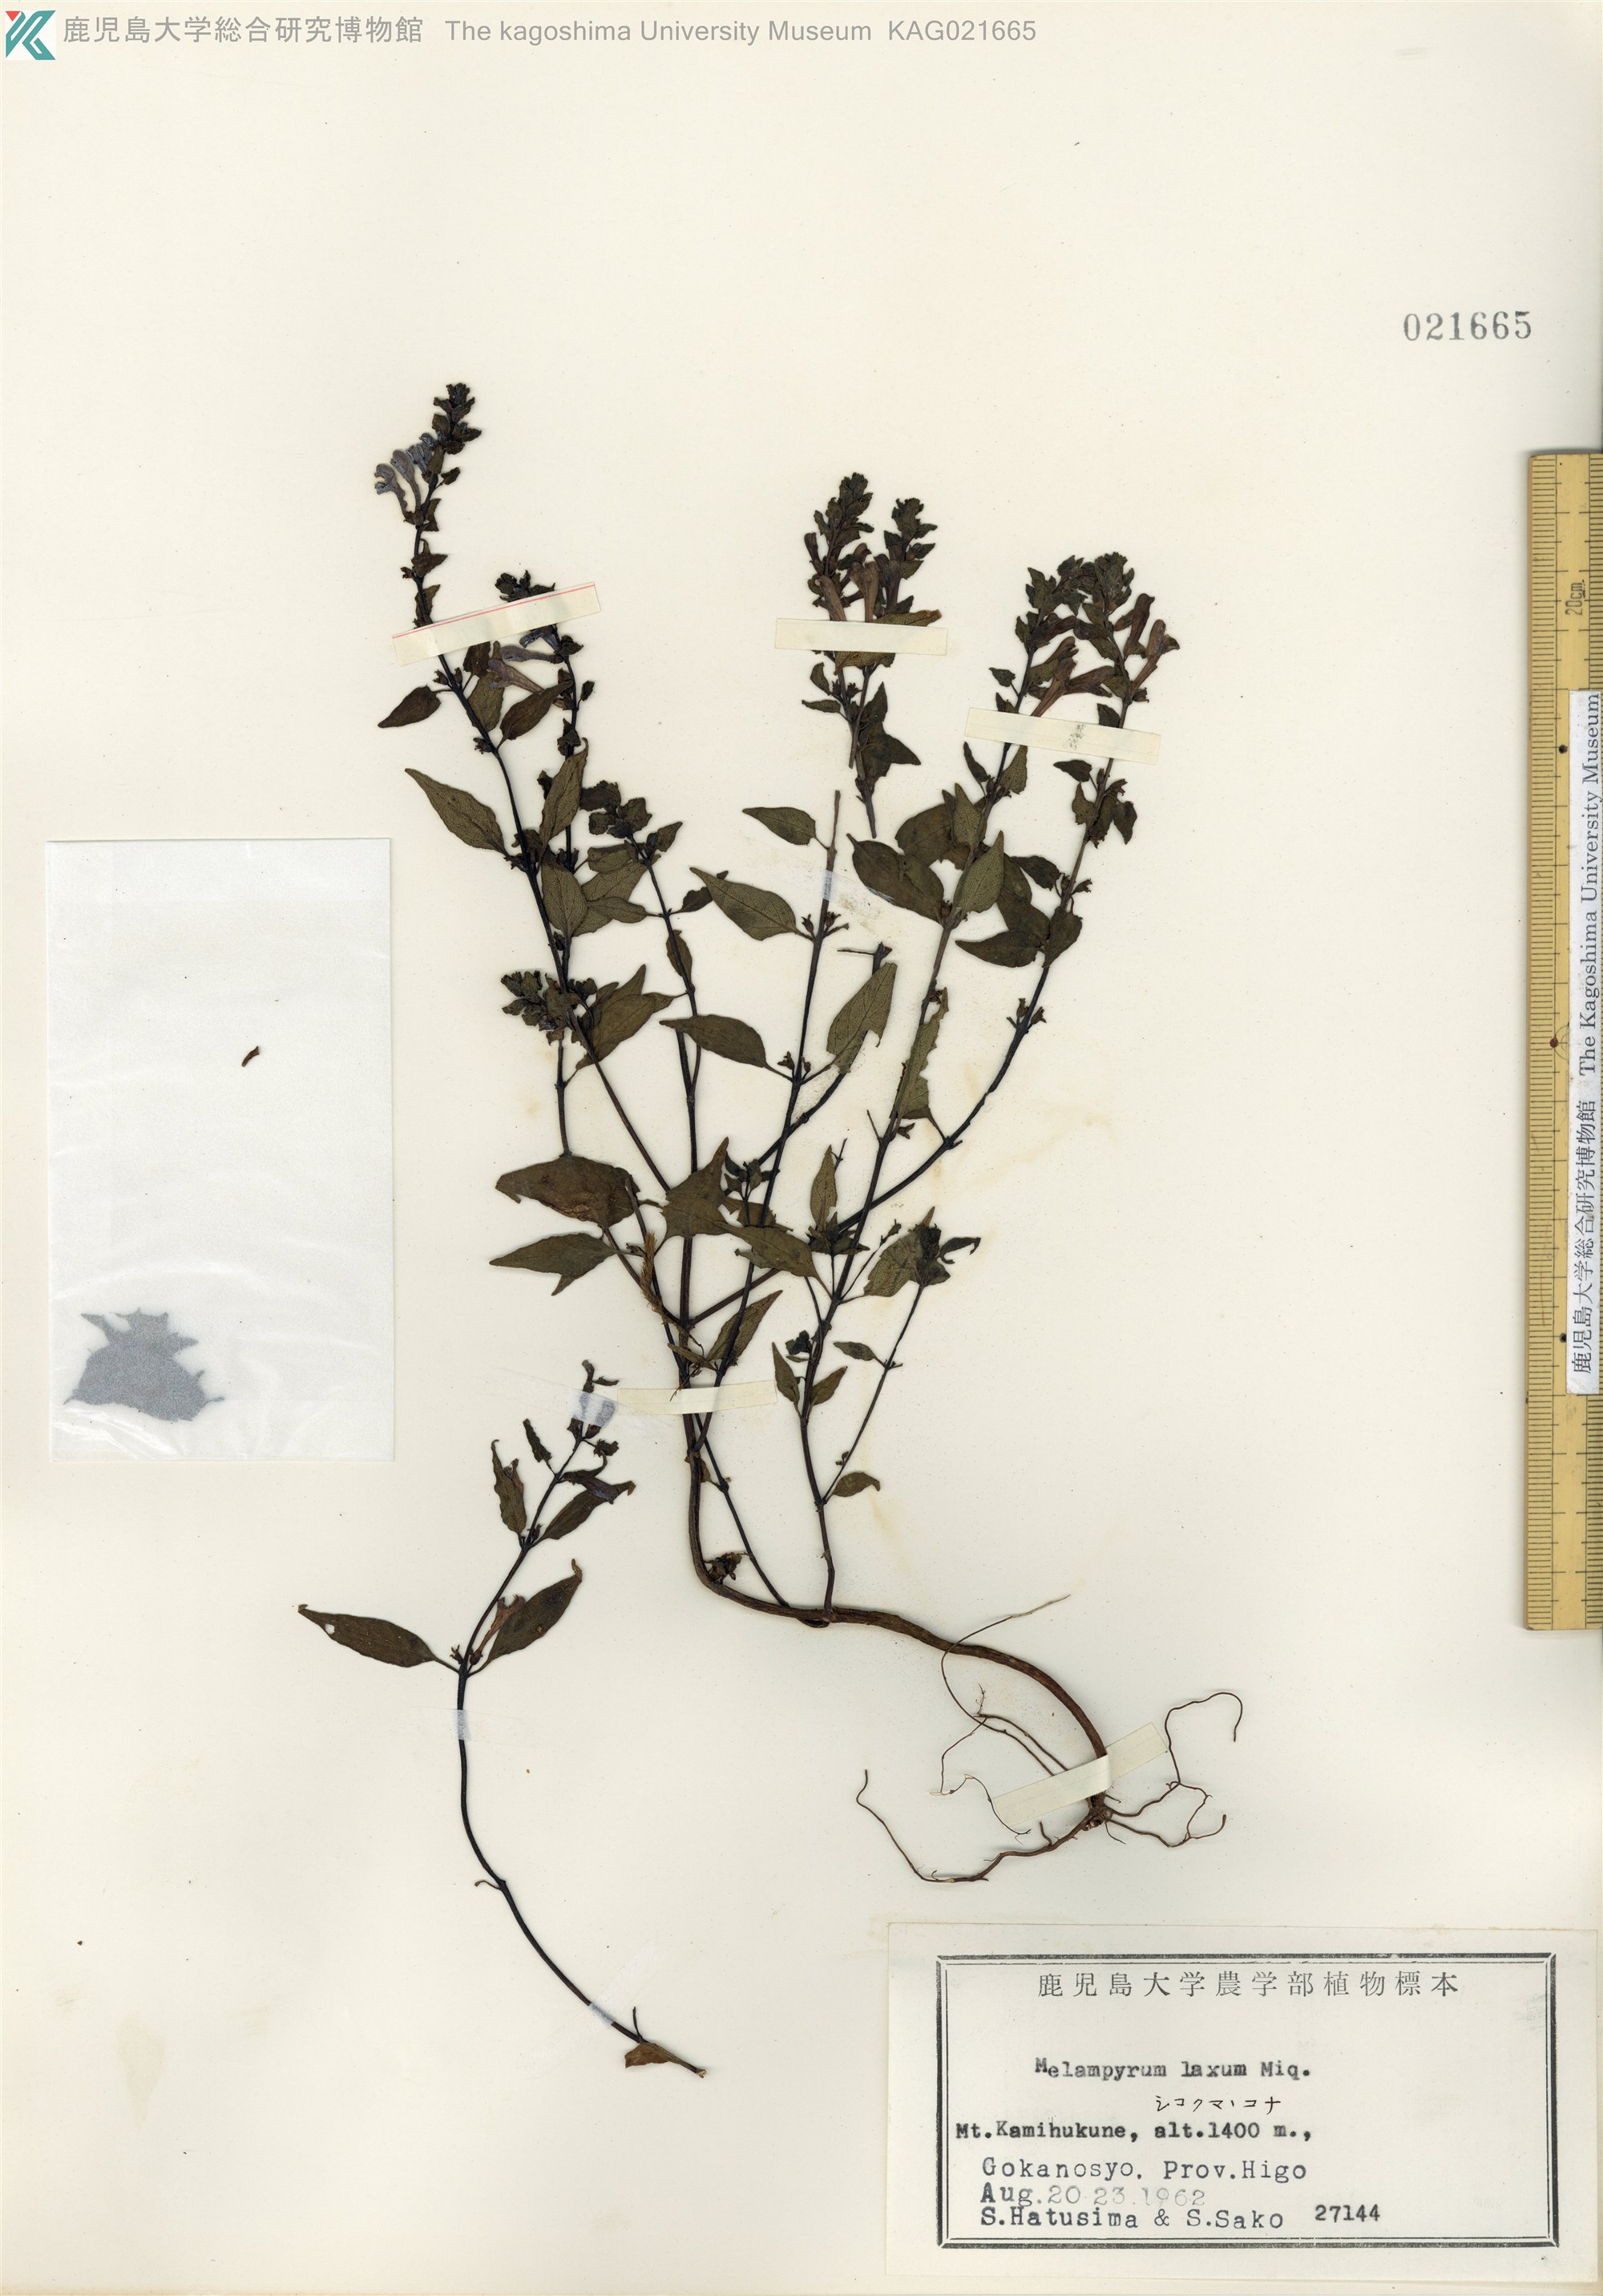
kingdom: Plantae
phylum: Tracheophyta
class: Magnoliopsida
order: Lamiales
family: Orobanchaceae
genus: Melampyrum
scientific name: Melampyrum laxum
